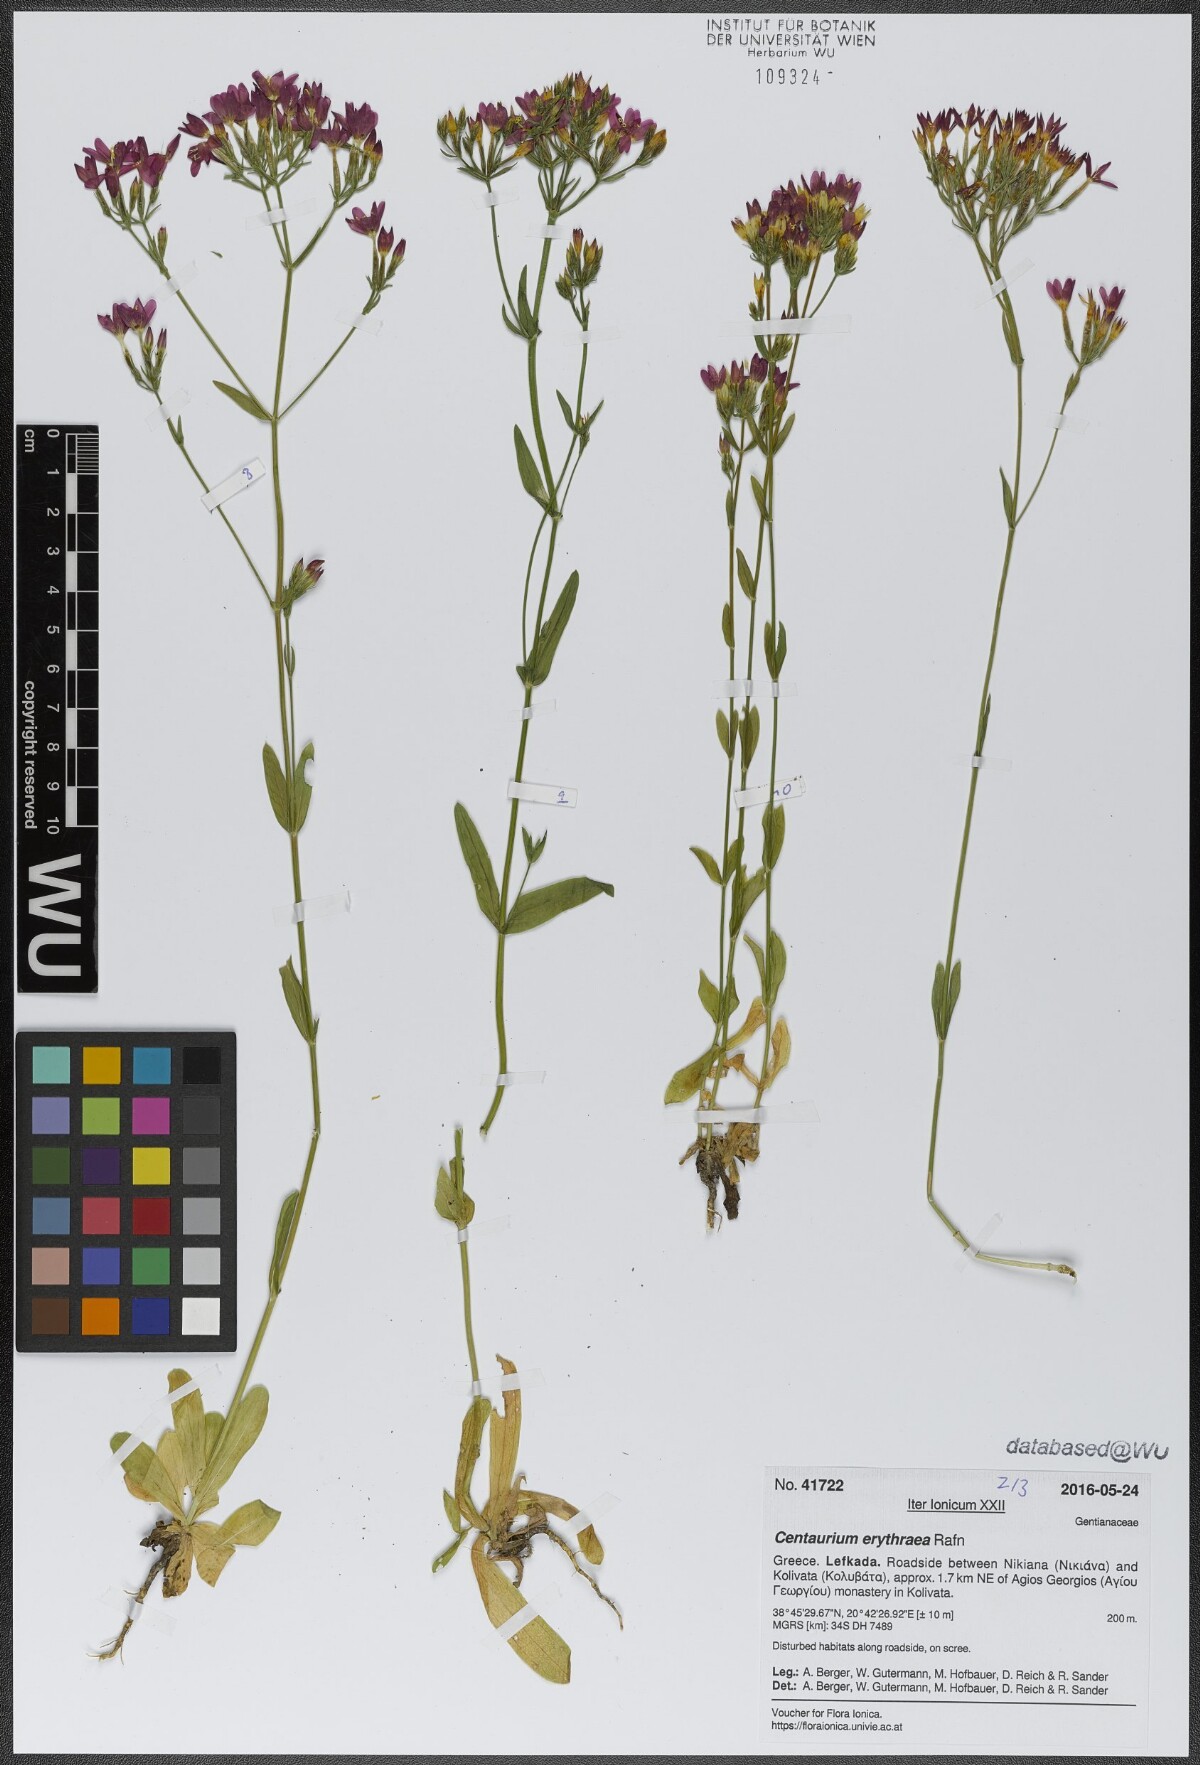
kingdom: Plantae
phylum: Tracheophyta
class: Magnoliopsida
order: Gentianales
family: Gentianaceae
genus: Centaurium
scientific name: Centaurium erythraea
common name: Common centaury
